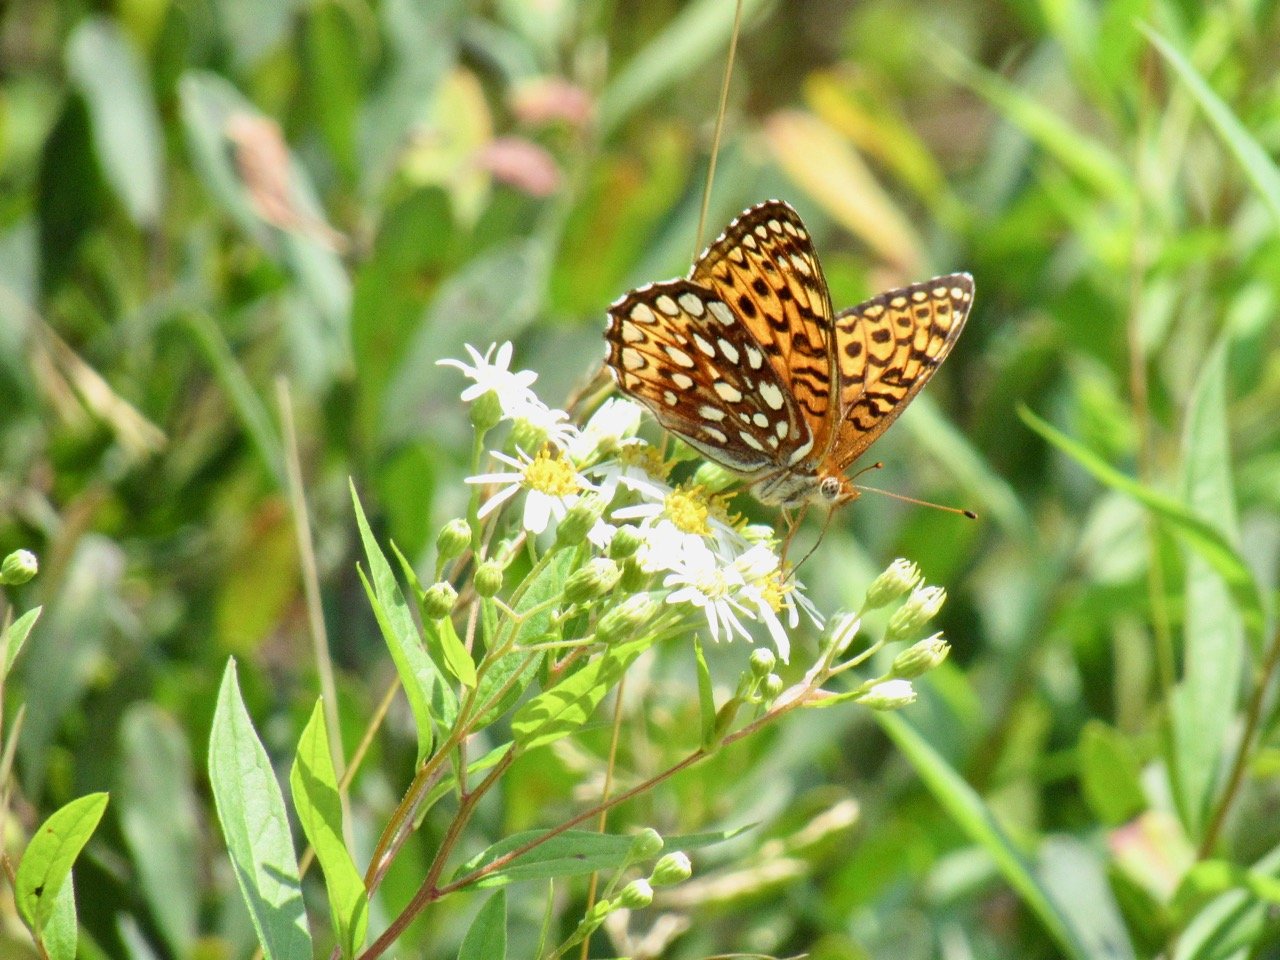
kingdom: Animalia
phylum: Arthropoda
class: Insecta
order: Lepidoptera
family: Nymphalidae
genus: Speyeria
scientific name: Speyeria atlantis
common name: Atlantis Fritillary
